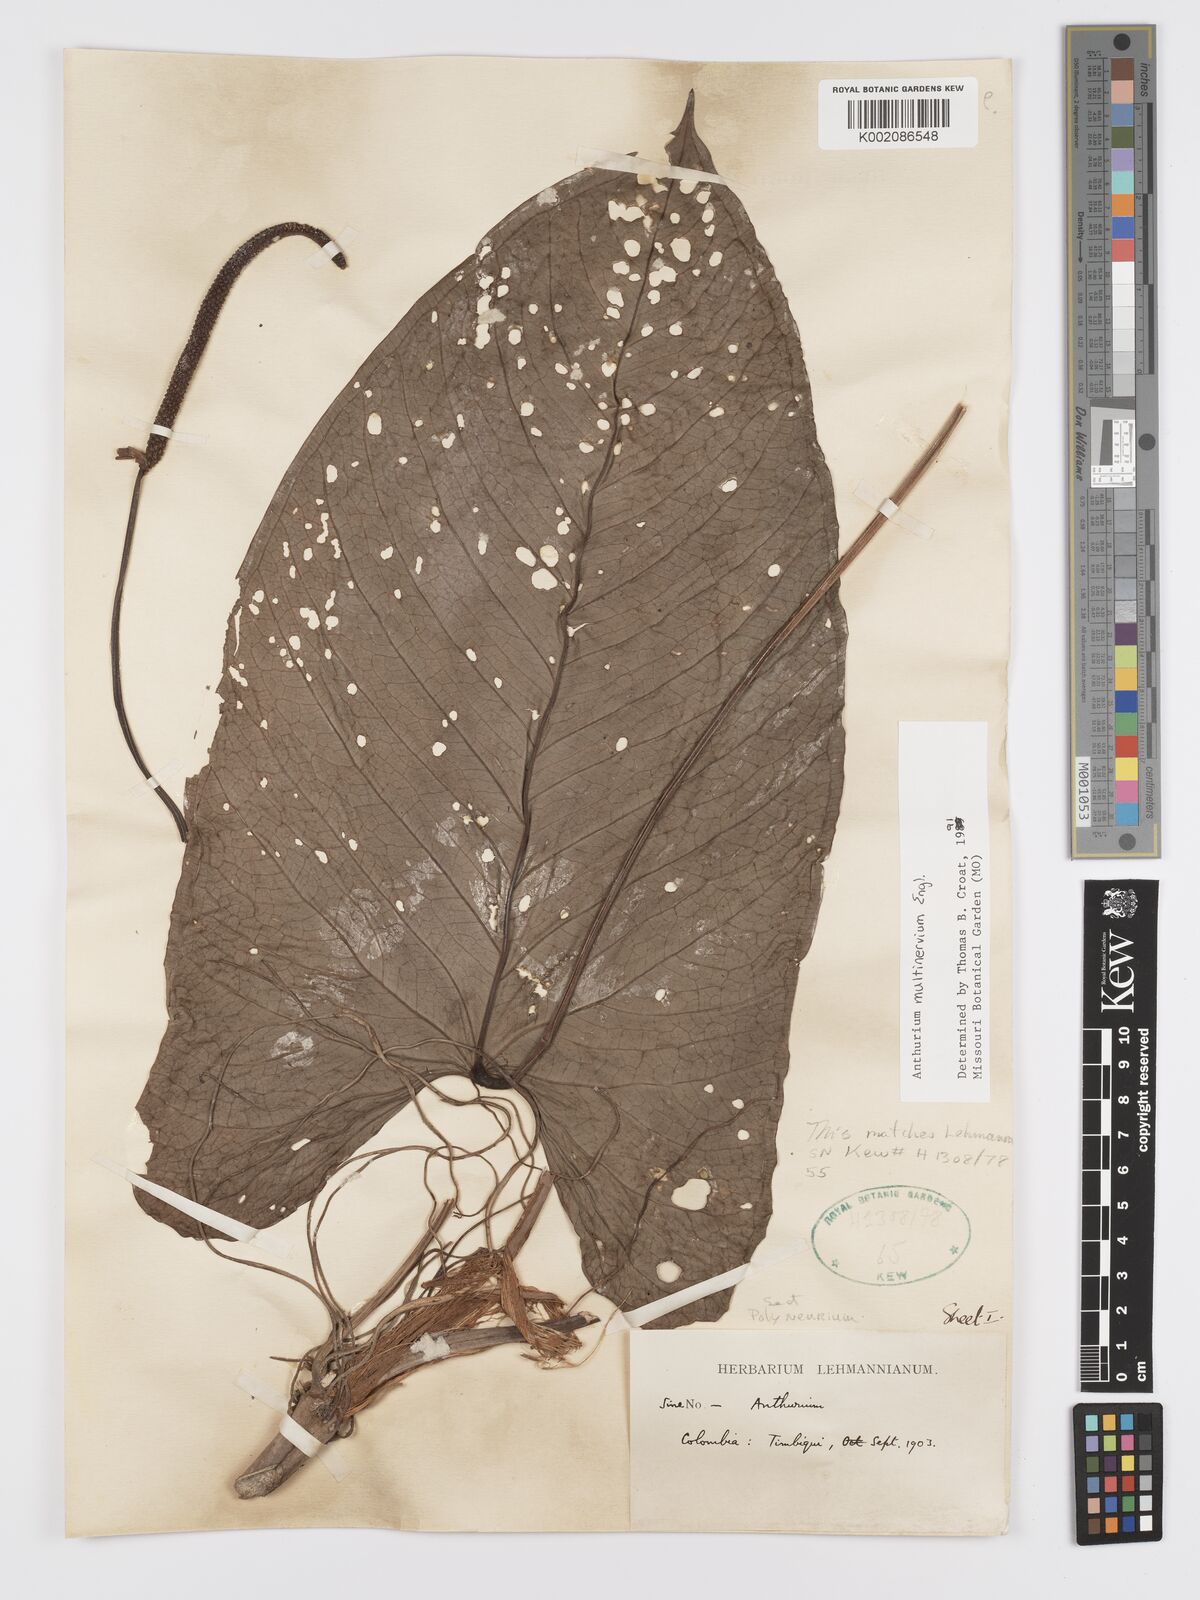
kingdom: Plantae
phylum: Tracheophyta
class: Liliopsida
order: Alismatales
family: Araceae
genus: Anthurium
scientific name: Anthurium multinervium
